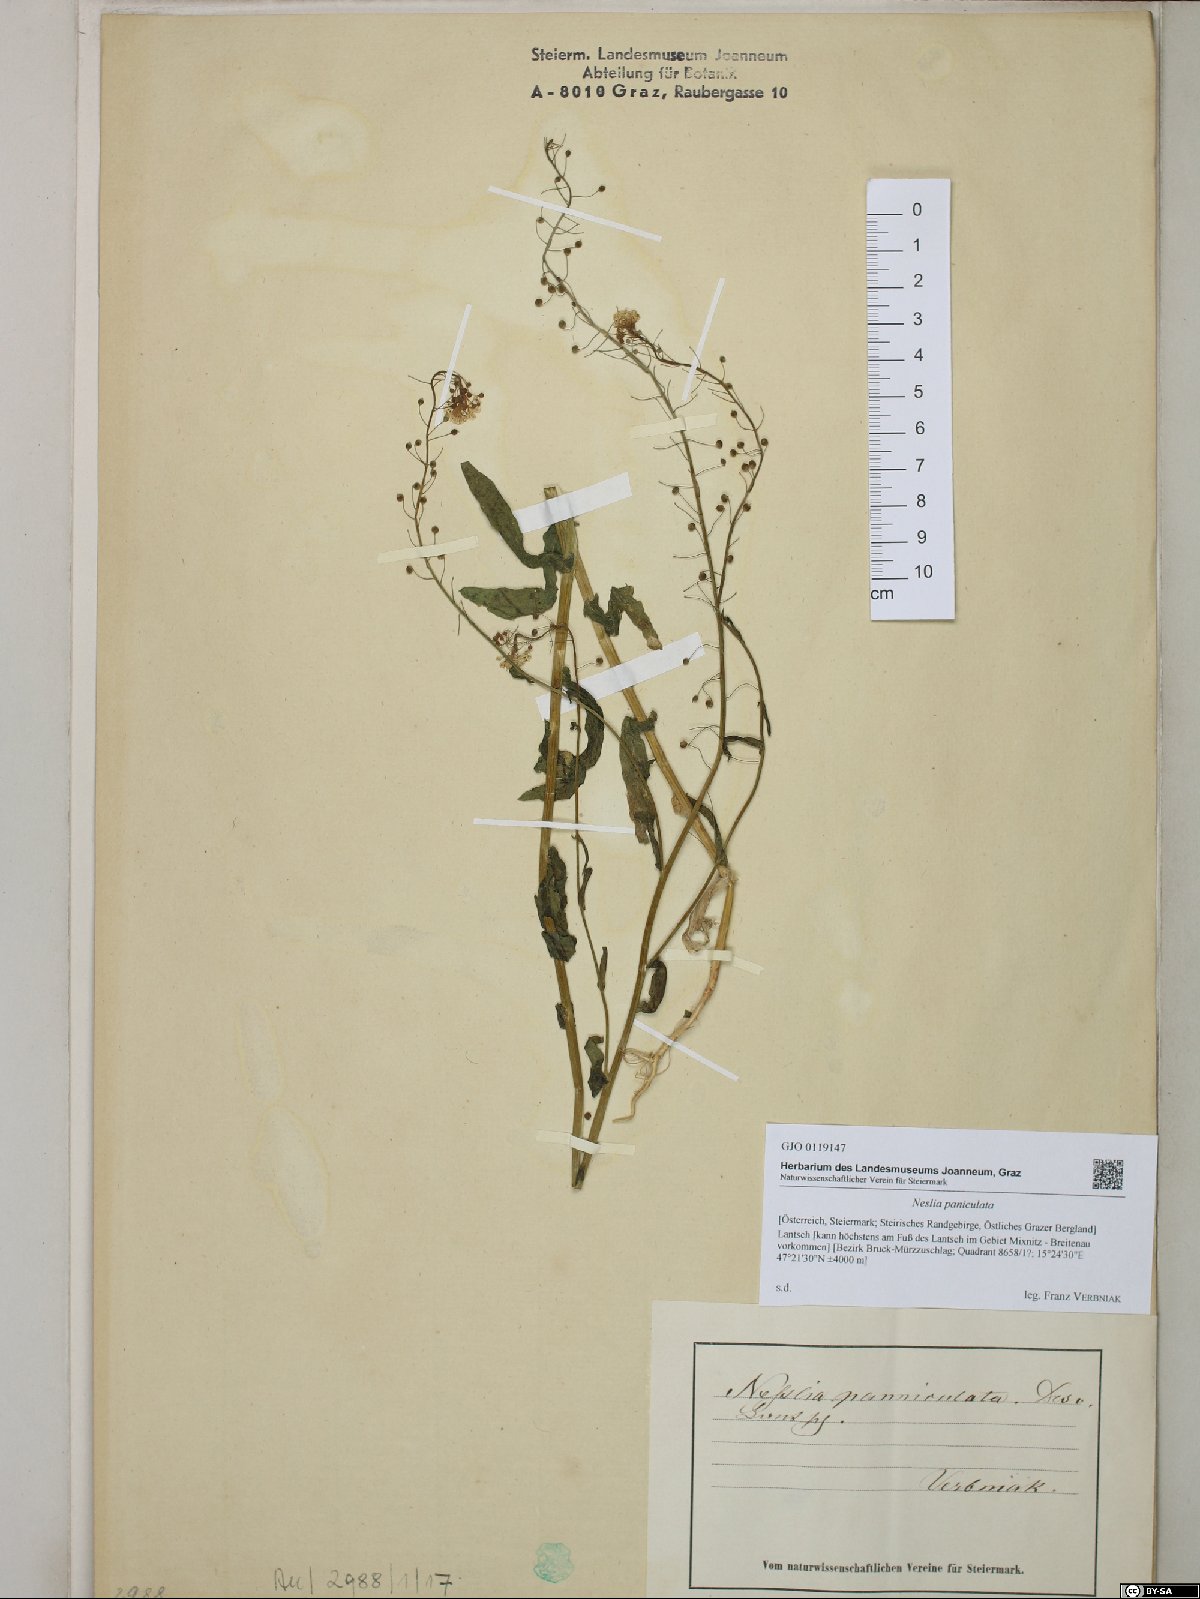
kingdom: Plantae
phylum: Tracheophyta
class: Magnoliopsida
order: Brassicales
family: Brassicaceae
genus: Neslia
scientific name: Neslia paniculata
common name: Ball mustard
